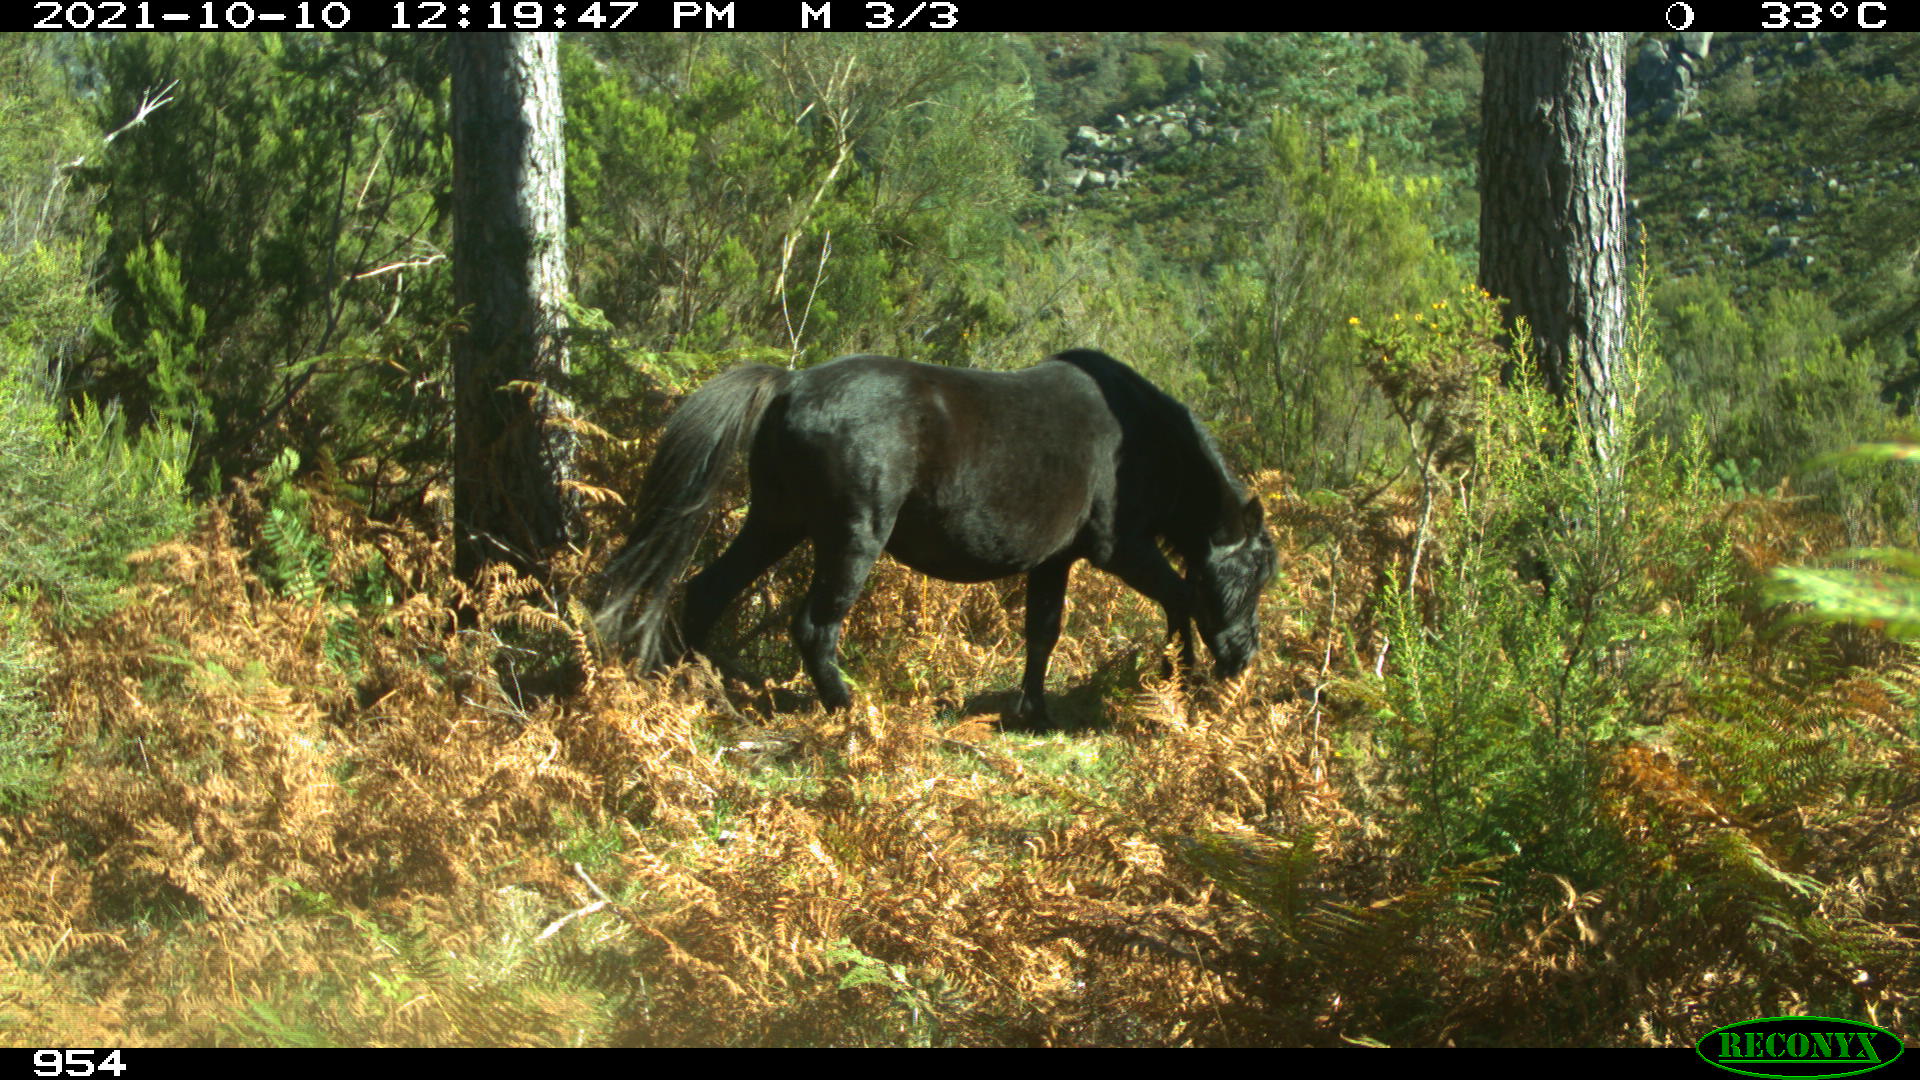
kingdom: Animalia
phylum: Chordata
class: Mammalia
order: Perissodactyla
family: Equidae
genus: Equus
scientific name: Equus caballus
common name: Horse
